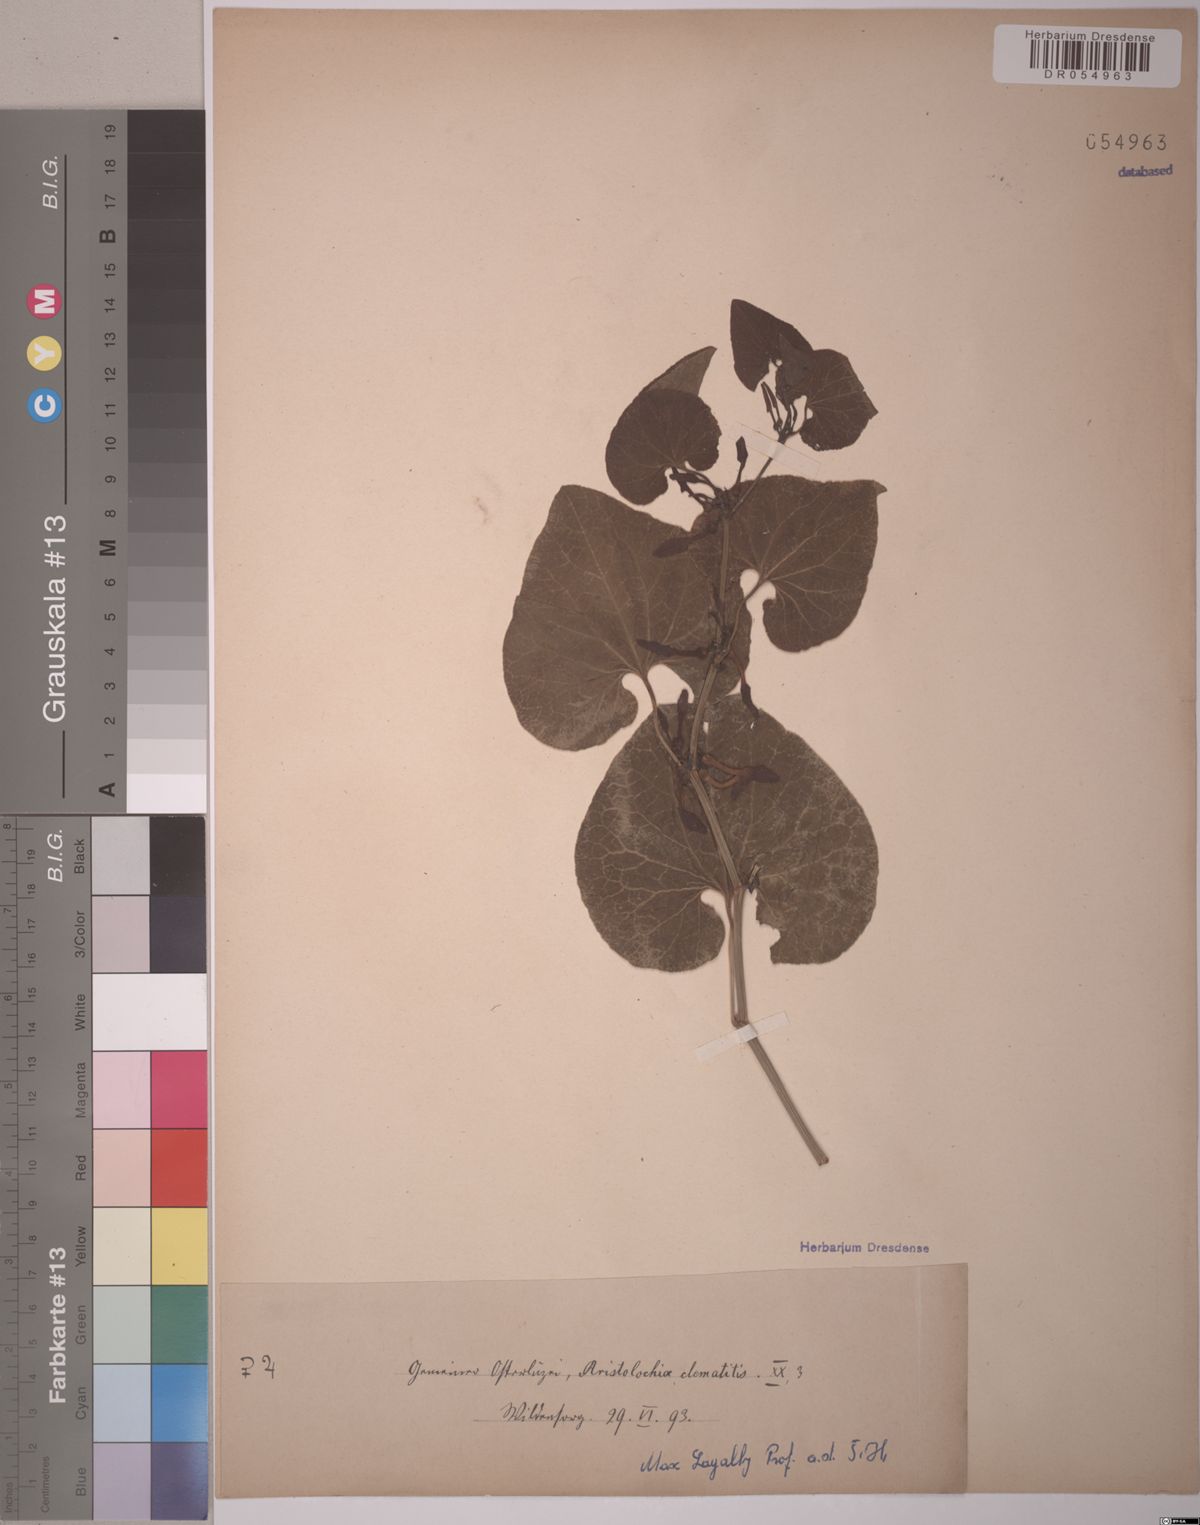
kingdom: Plantae
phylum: Tracheophyta
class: Magnoliopsida
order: Piperales
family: Aristolochiaceae
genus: Aristolochia
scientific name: Aristolochia clematitis
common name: Birthwort
